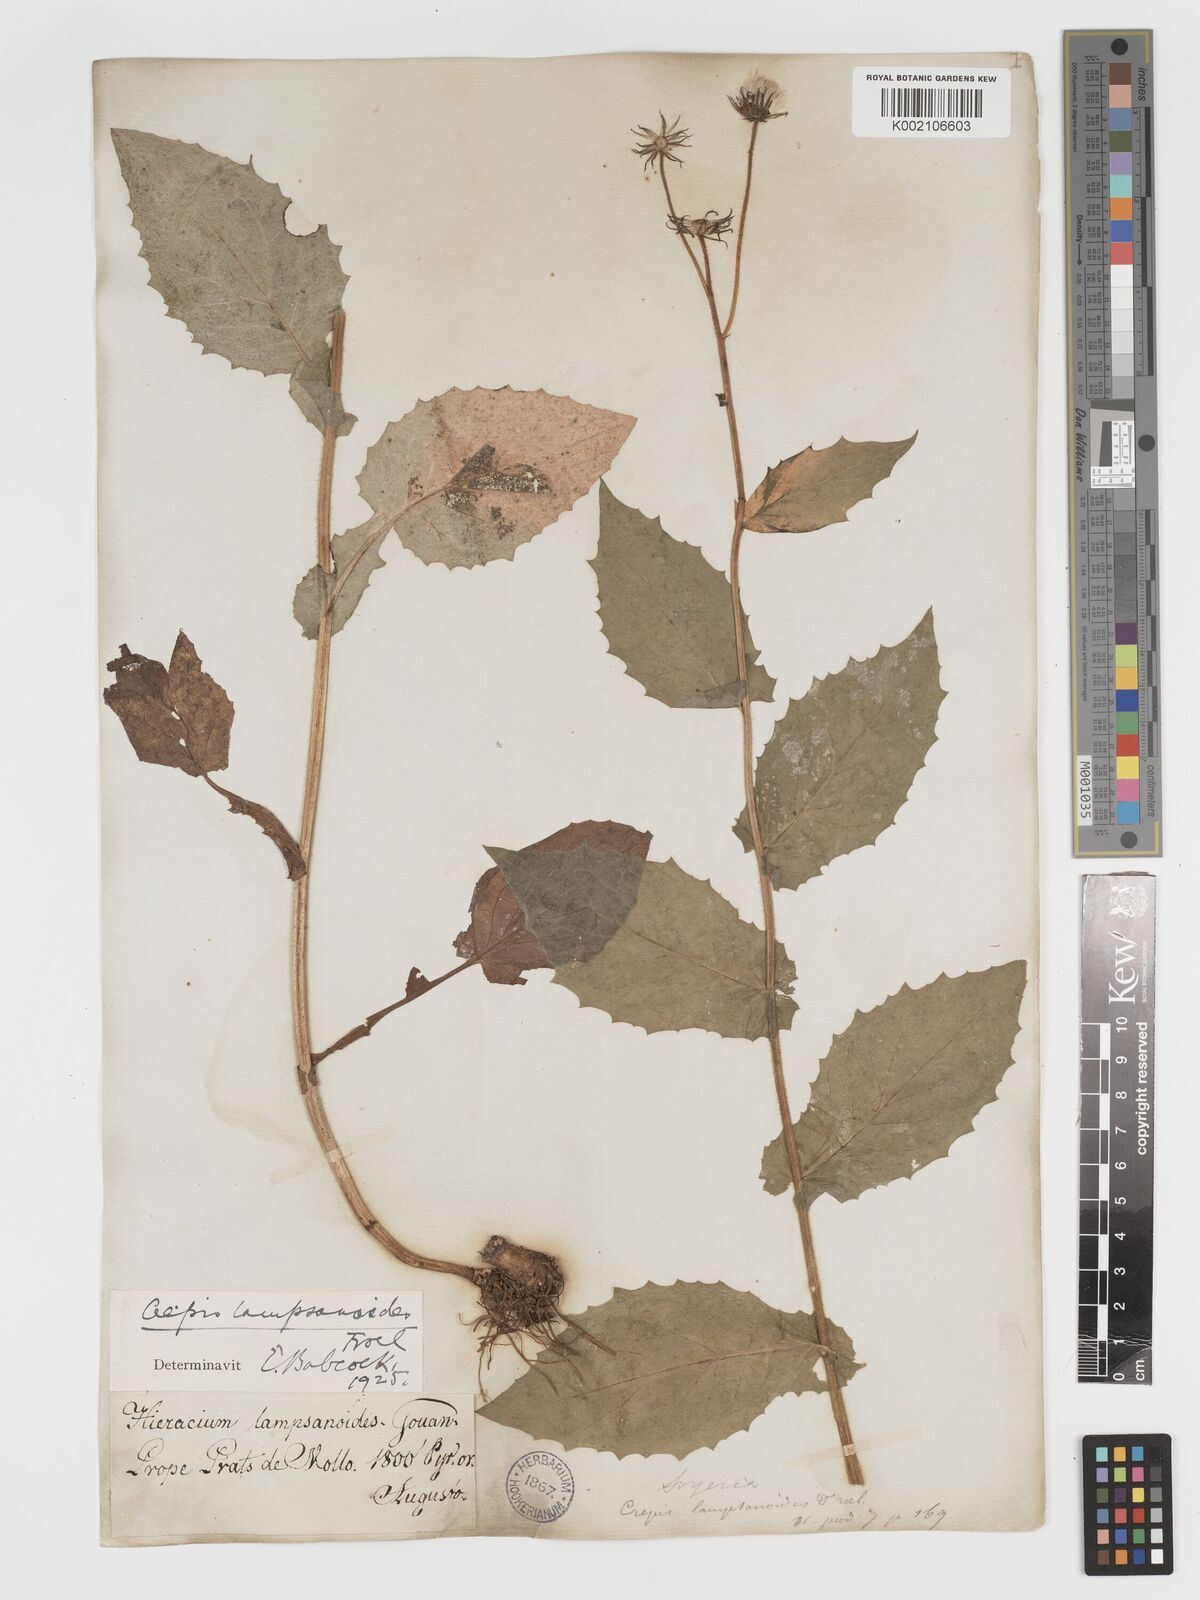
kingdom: Plantae
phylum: Tracheophyta
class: Magnoliopsida
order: Asterales
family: Asteraceae
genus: Crepis
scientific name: Crepis lampsanoides
